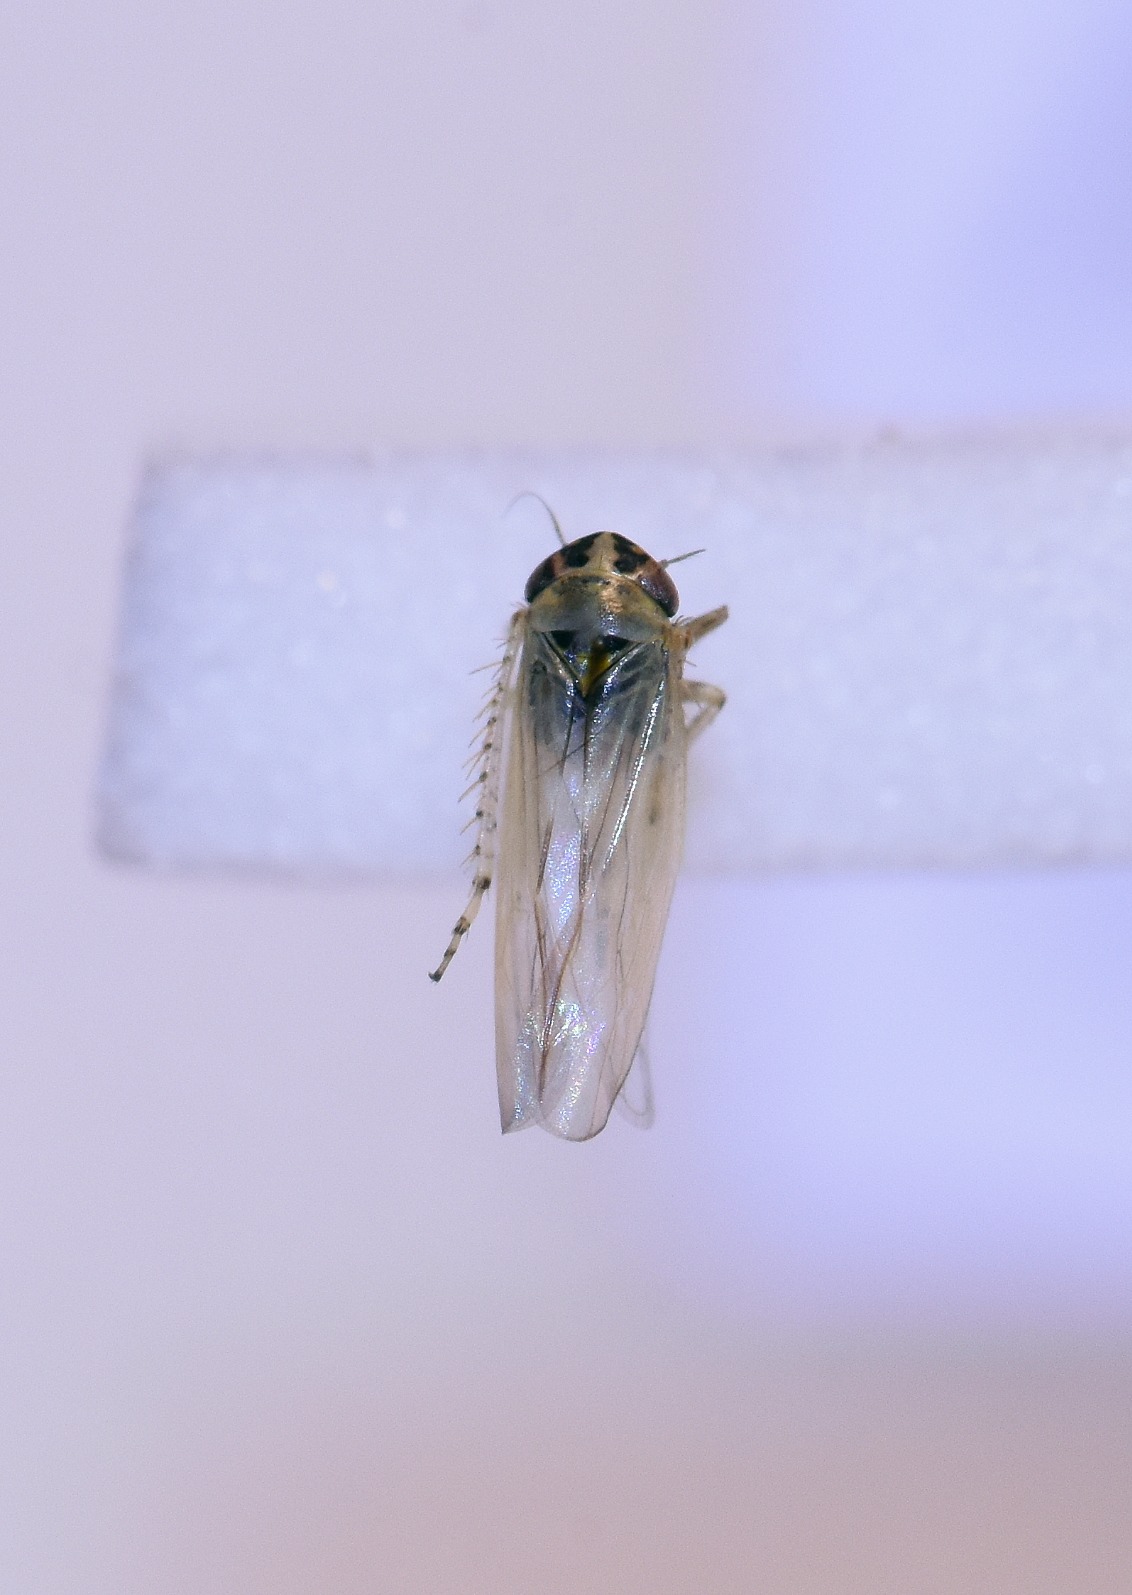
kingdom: Animalia
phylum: Arthropoda
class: Insecta
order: Hemiptera
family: Cicadellidae
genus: Macrosteles
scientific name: Macrosteles laevis
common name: Dværgcikade
